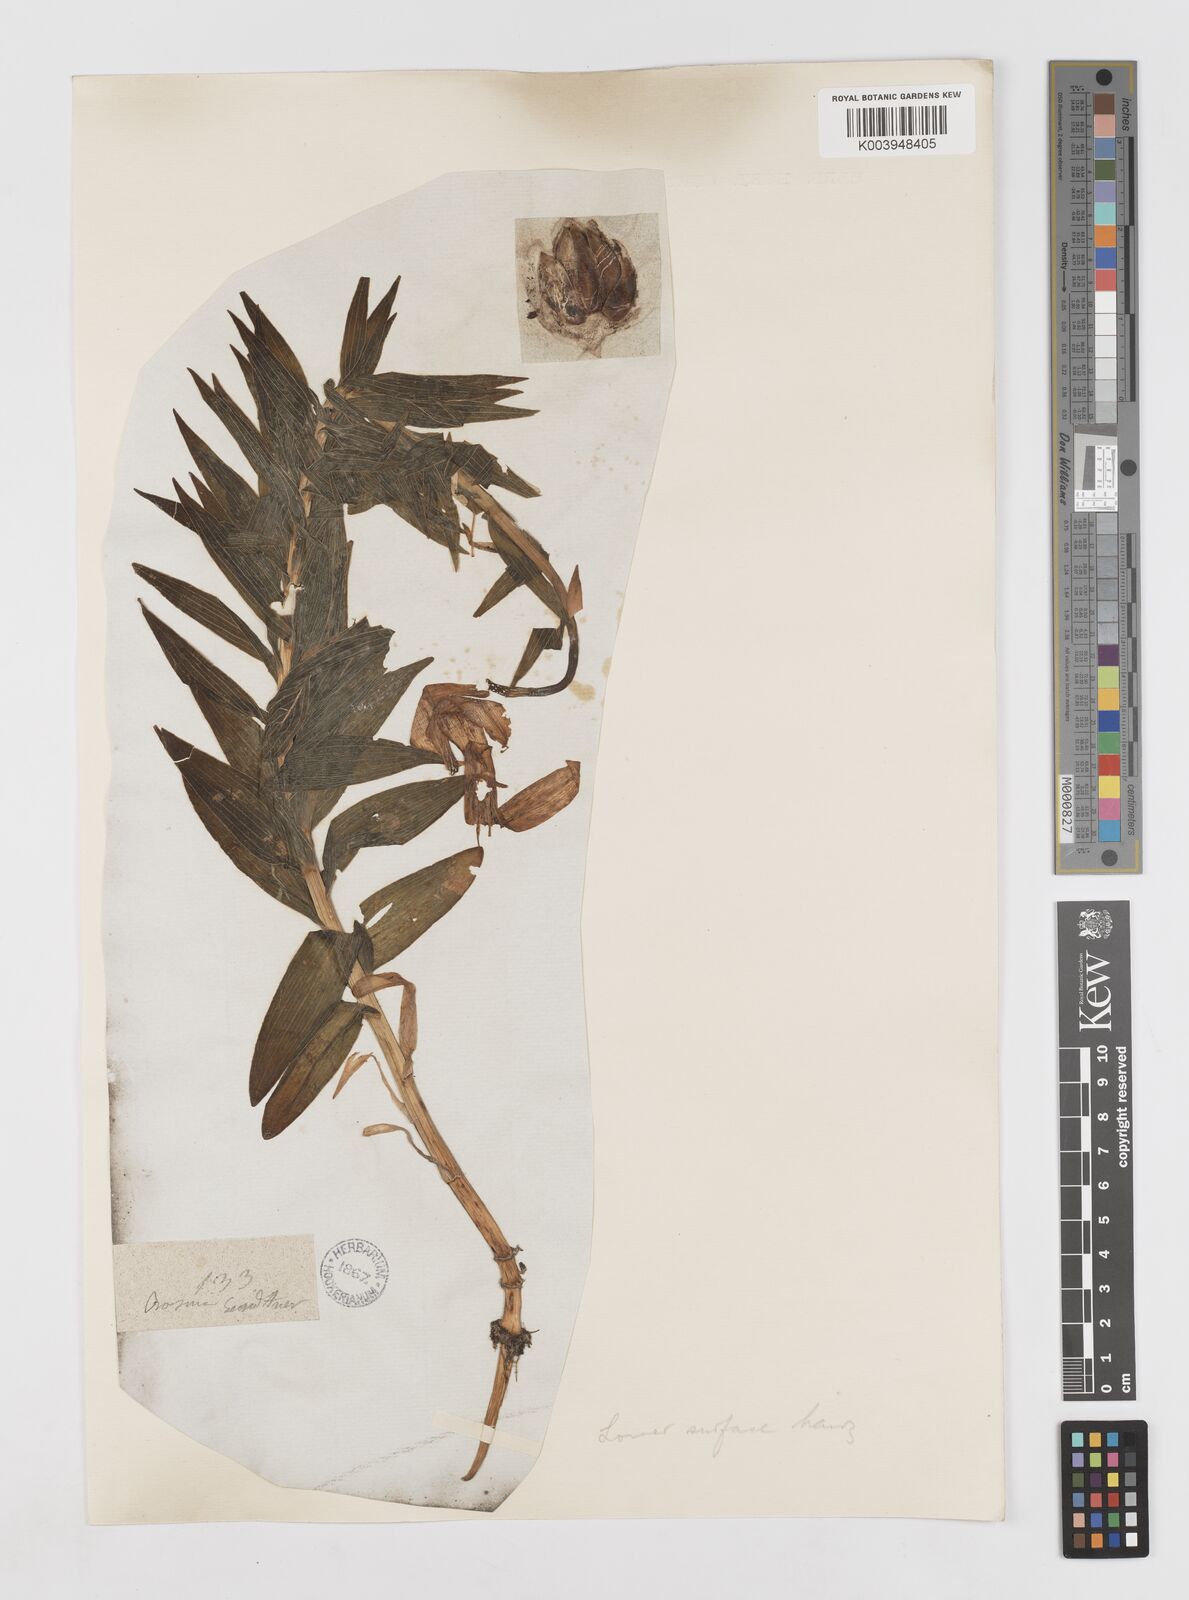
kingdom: Plantae
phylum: Tracheophyta
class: Liliopsida
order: Liliales
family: Liliaceae
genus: Lilium
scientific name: Lilium jankae
